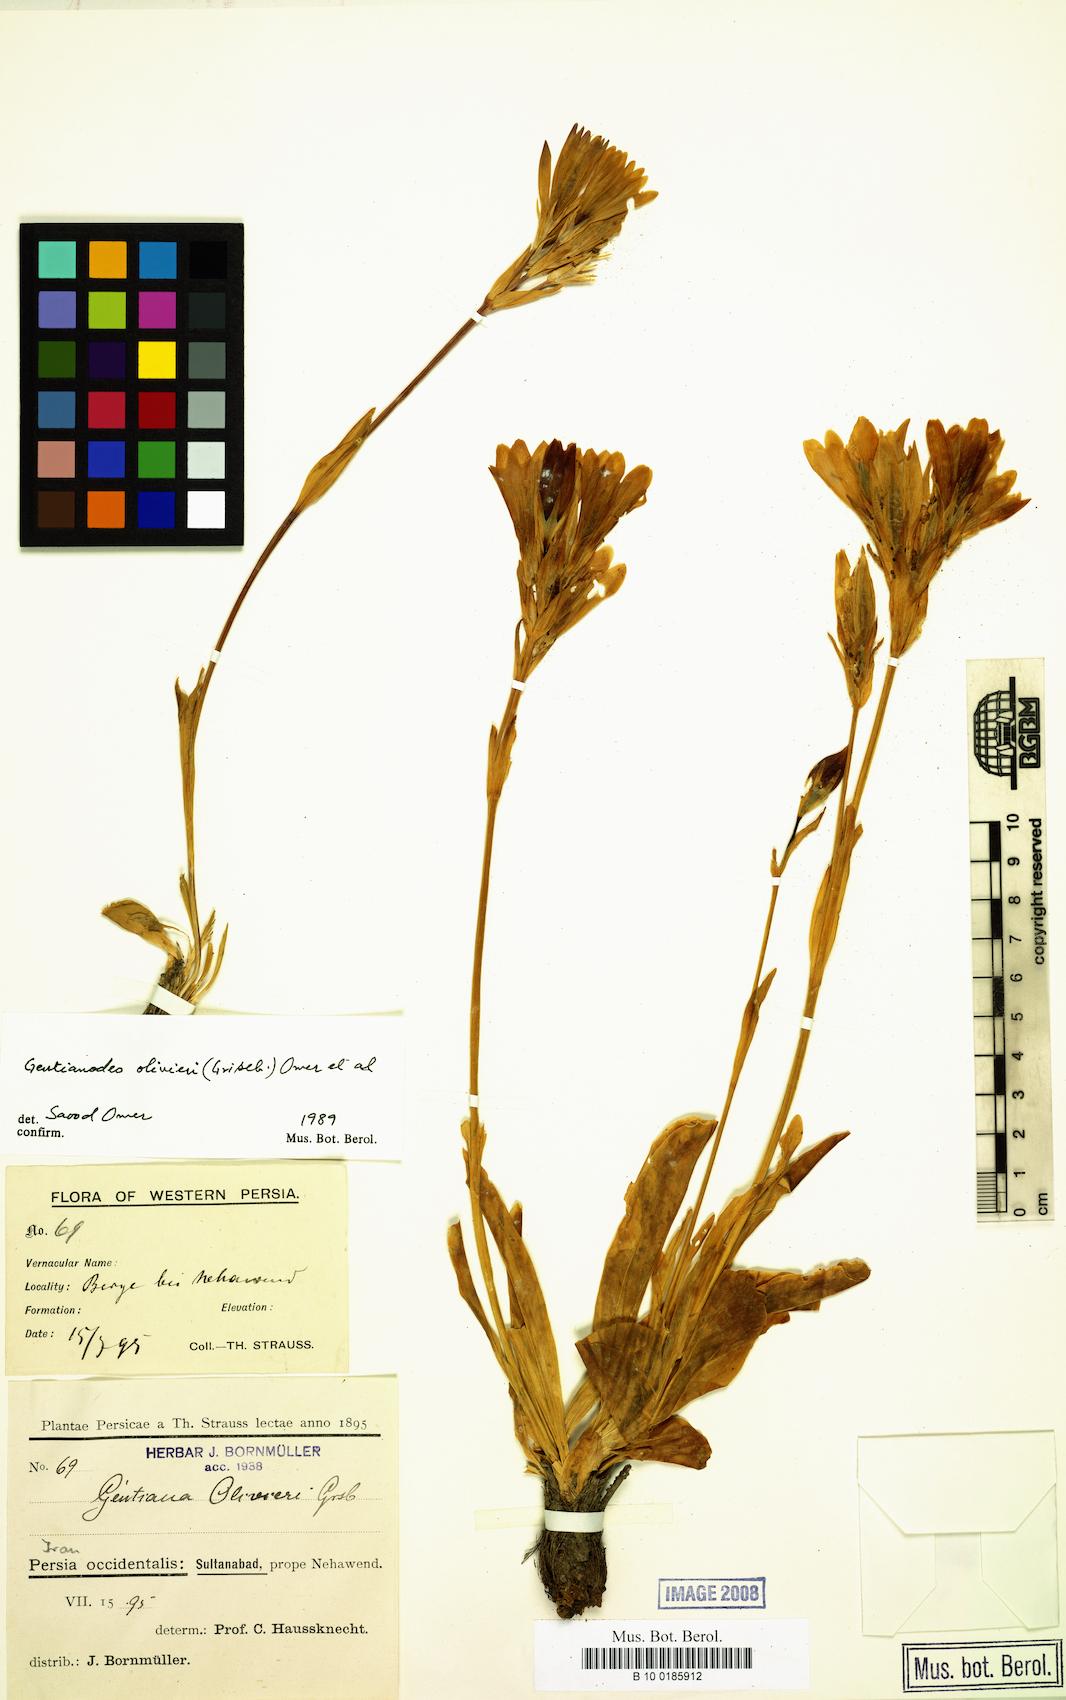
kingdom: Plantae
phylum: Tracheophyta
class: Magnoliopsida
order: Gentianales
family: Gentianaceae
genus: Gentiana
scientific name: Gentiana olivieri
